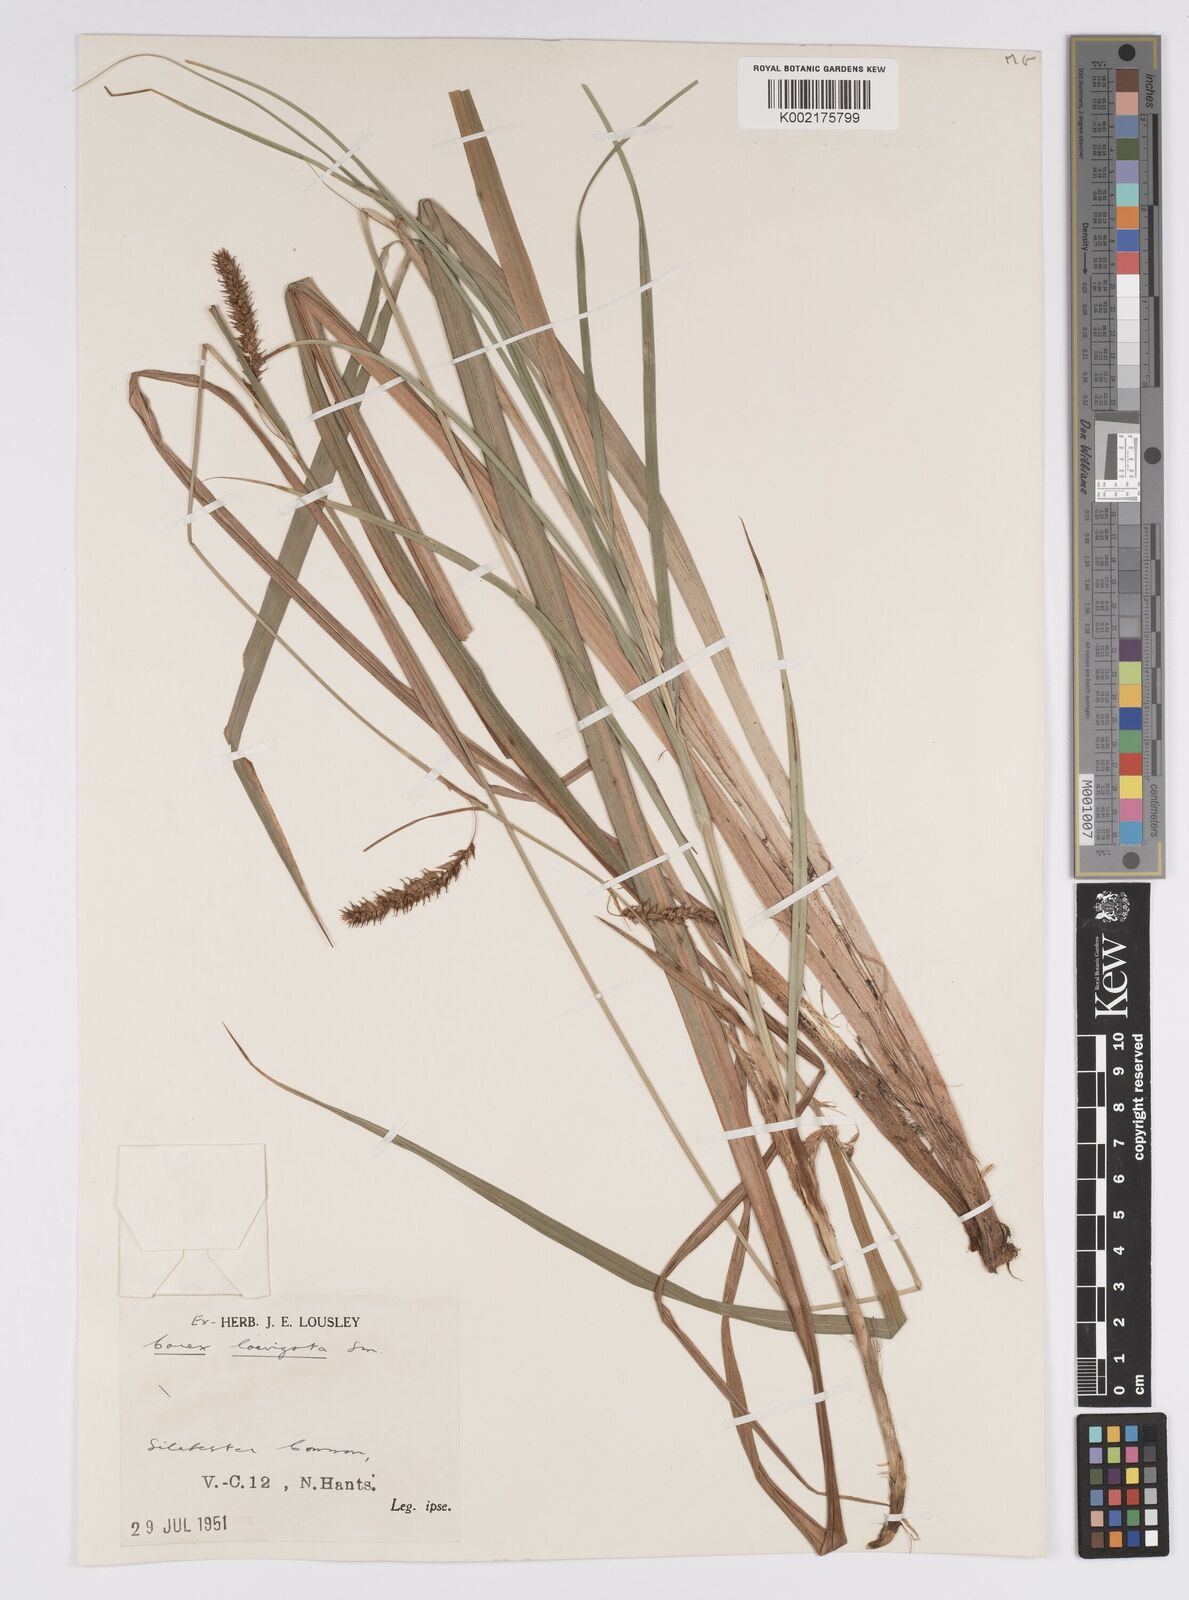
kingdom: Plantae
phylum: Tracheophyta
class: Liliopsida
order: Poales
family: Cyperaceae
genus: Carex
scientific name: Carex laevigata
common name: Smooth-stalked sedge
